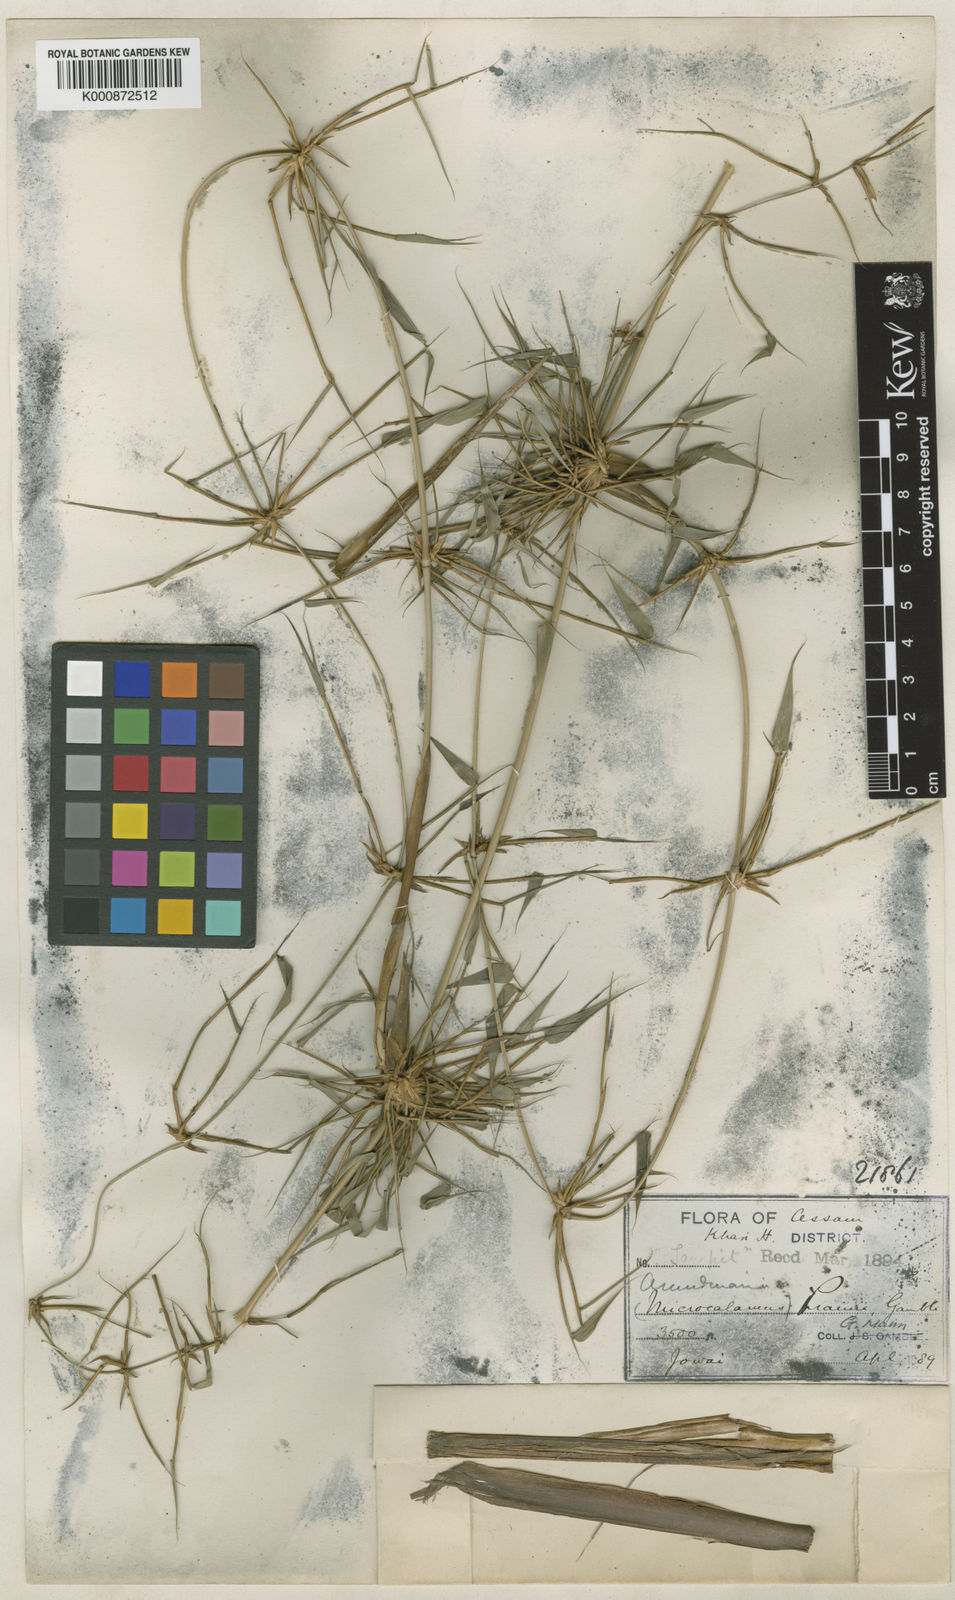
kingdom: Plantae
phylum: Tracheophyta
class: Liliopsida
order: Poales
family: Poaceae
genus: Neomicrocalamus
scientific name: Neomicrocalamus prainii
